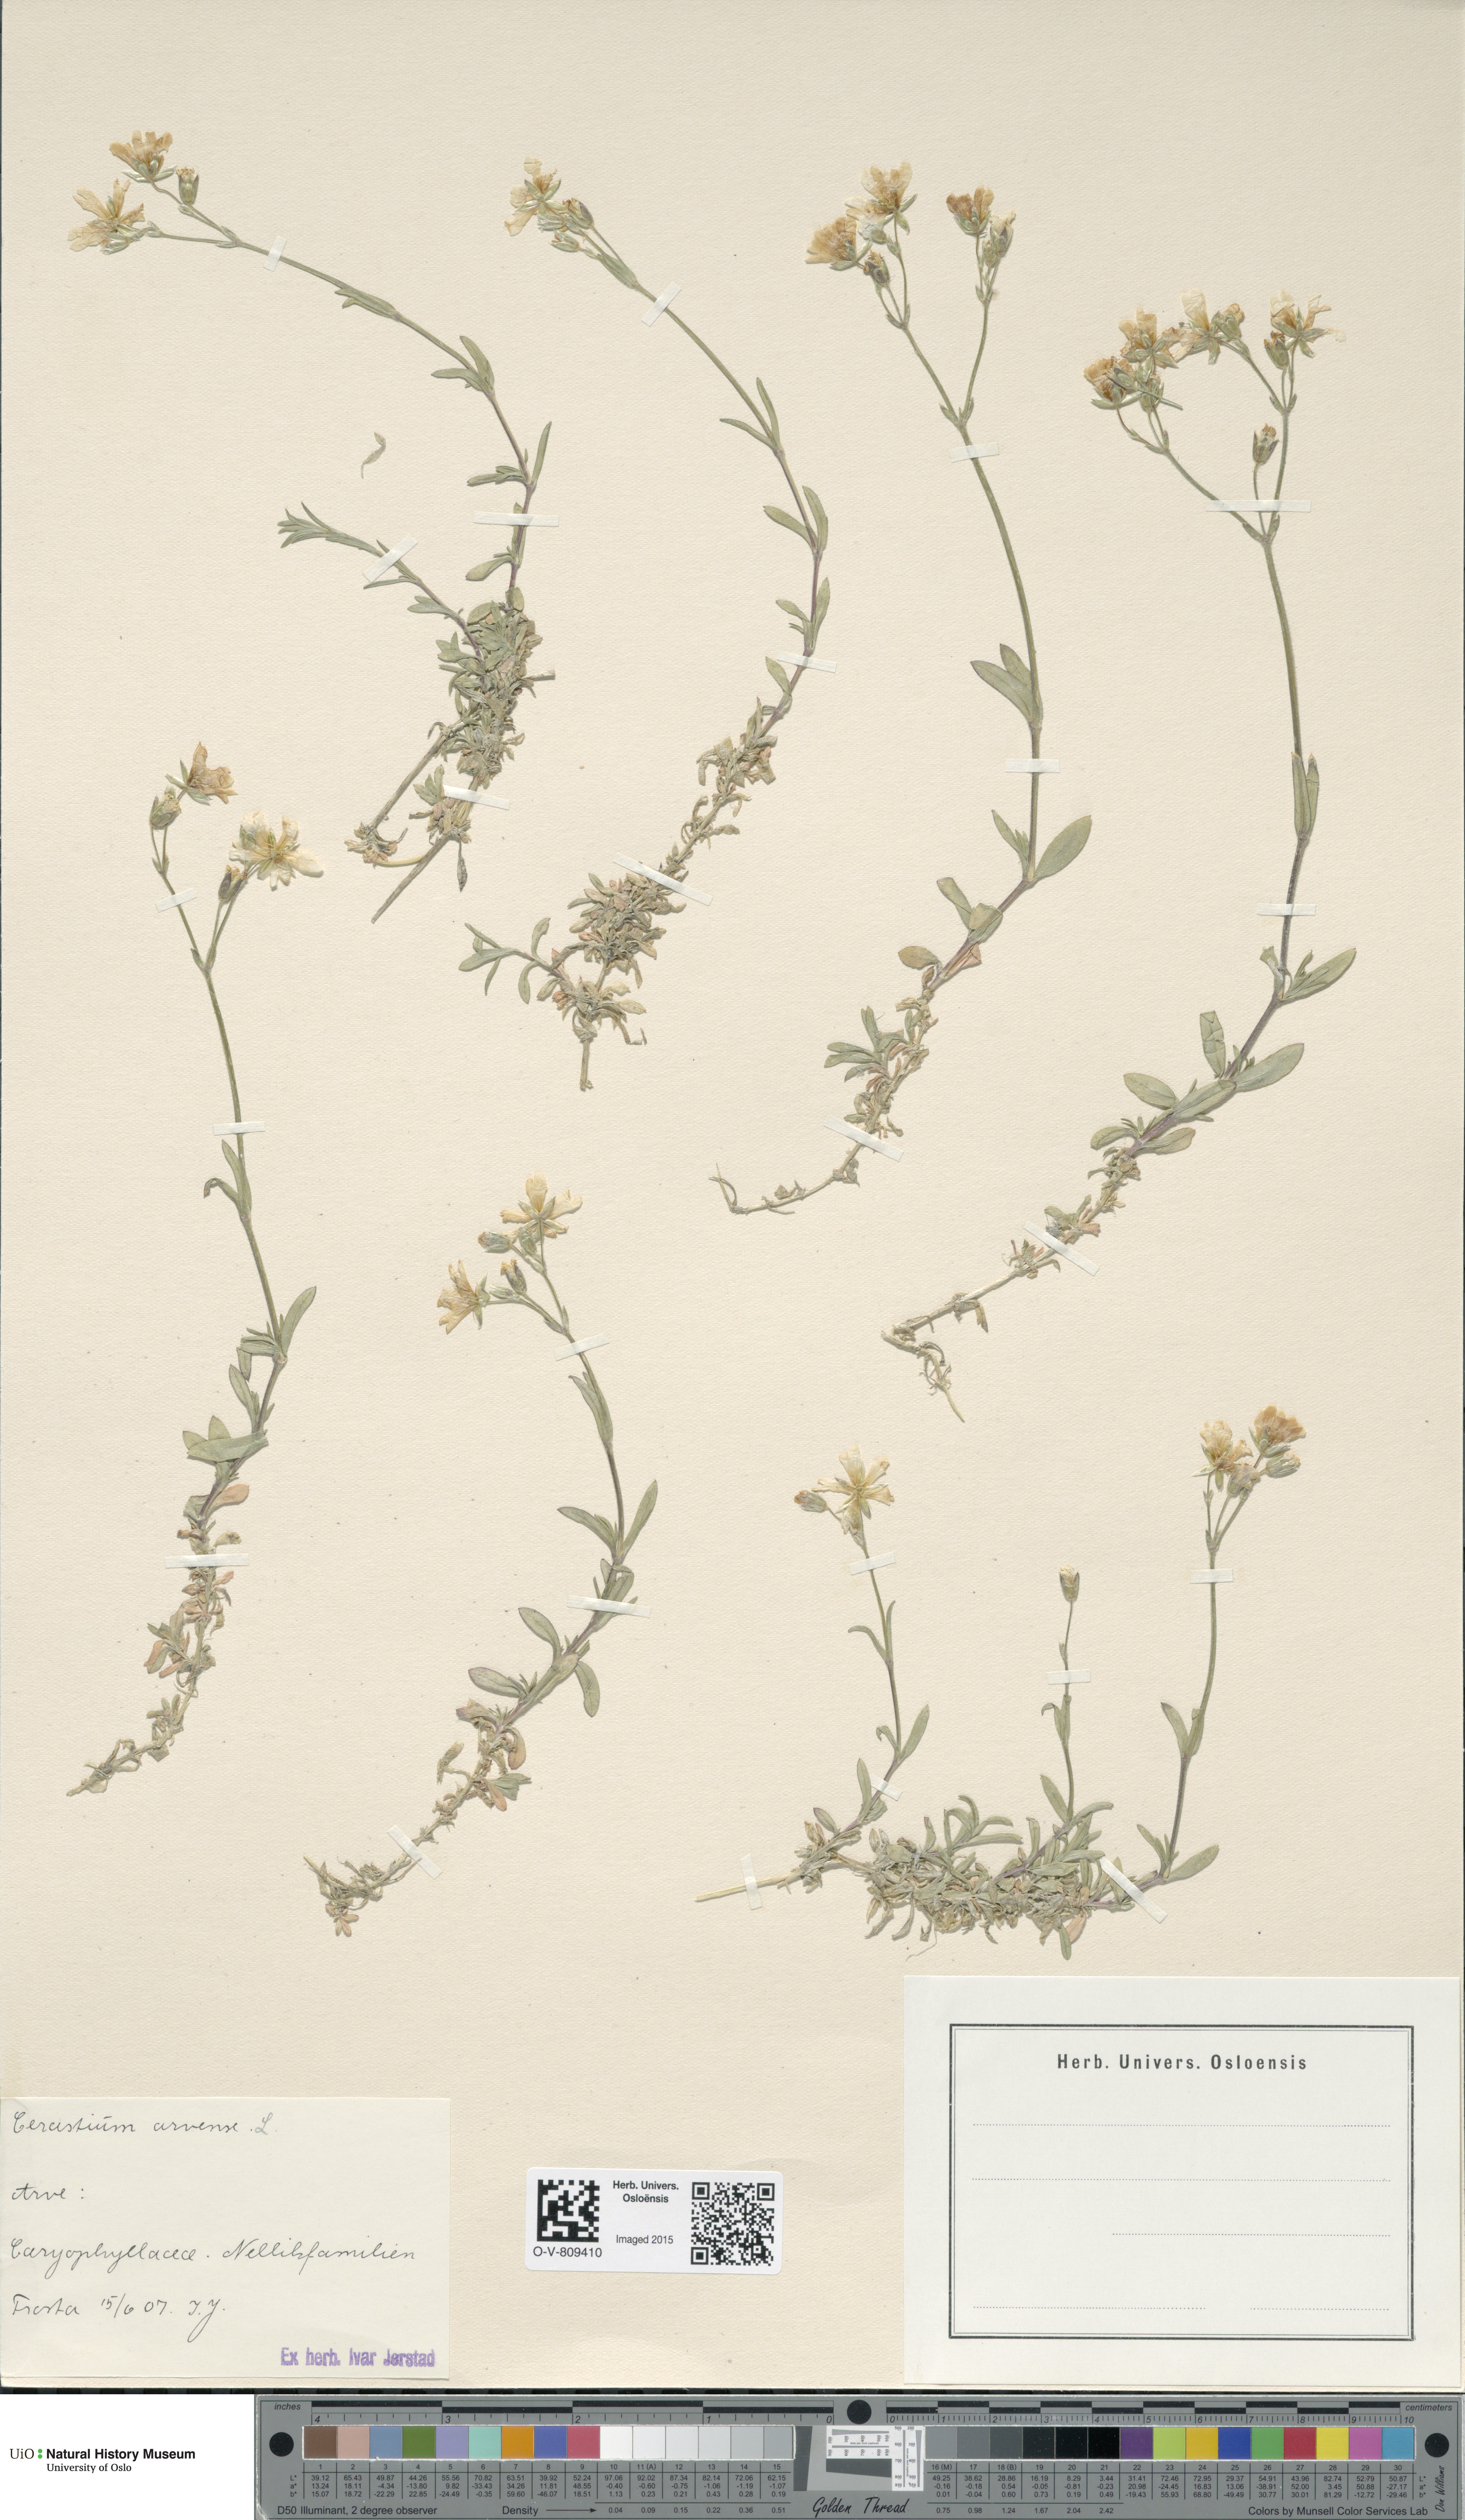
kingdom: Plantae
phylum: Tracheophyta
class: Magnoliopsida
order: Caryophyllales
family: Caryophyllaceae
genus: Cerastium
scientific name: Cerastium arvense
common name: Field mouse-ear
